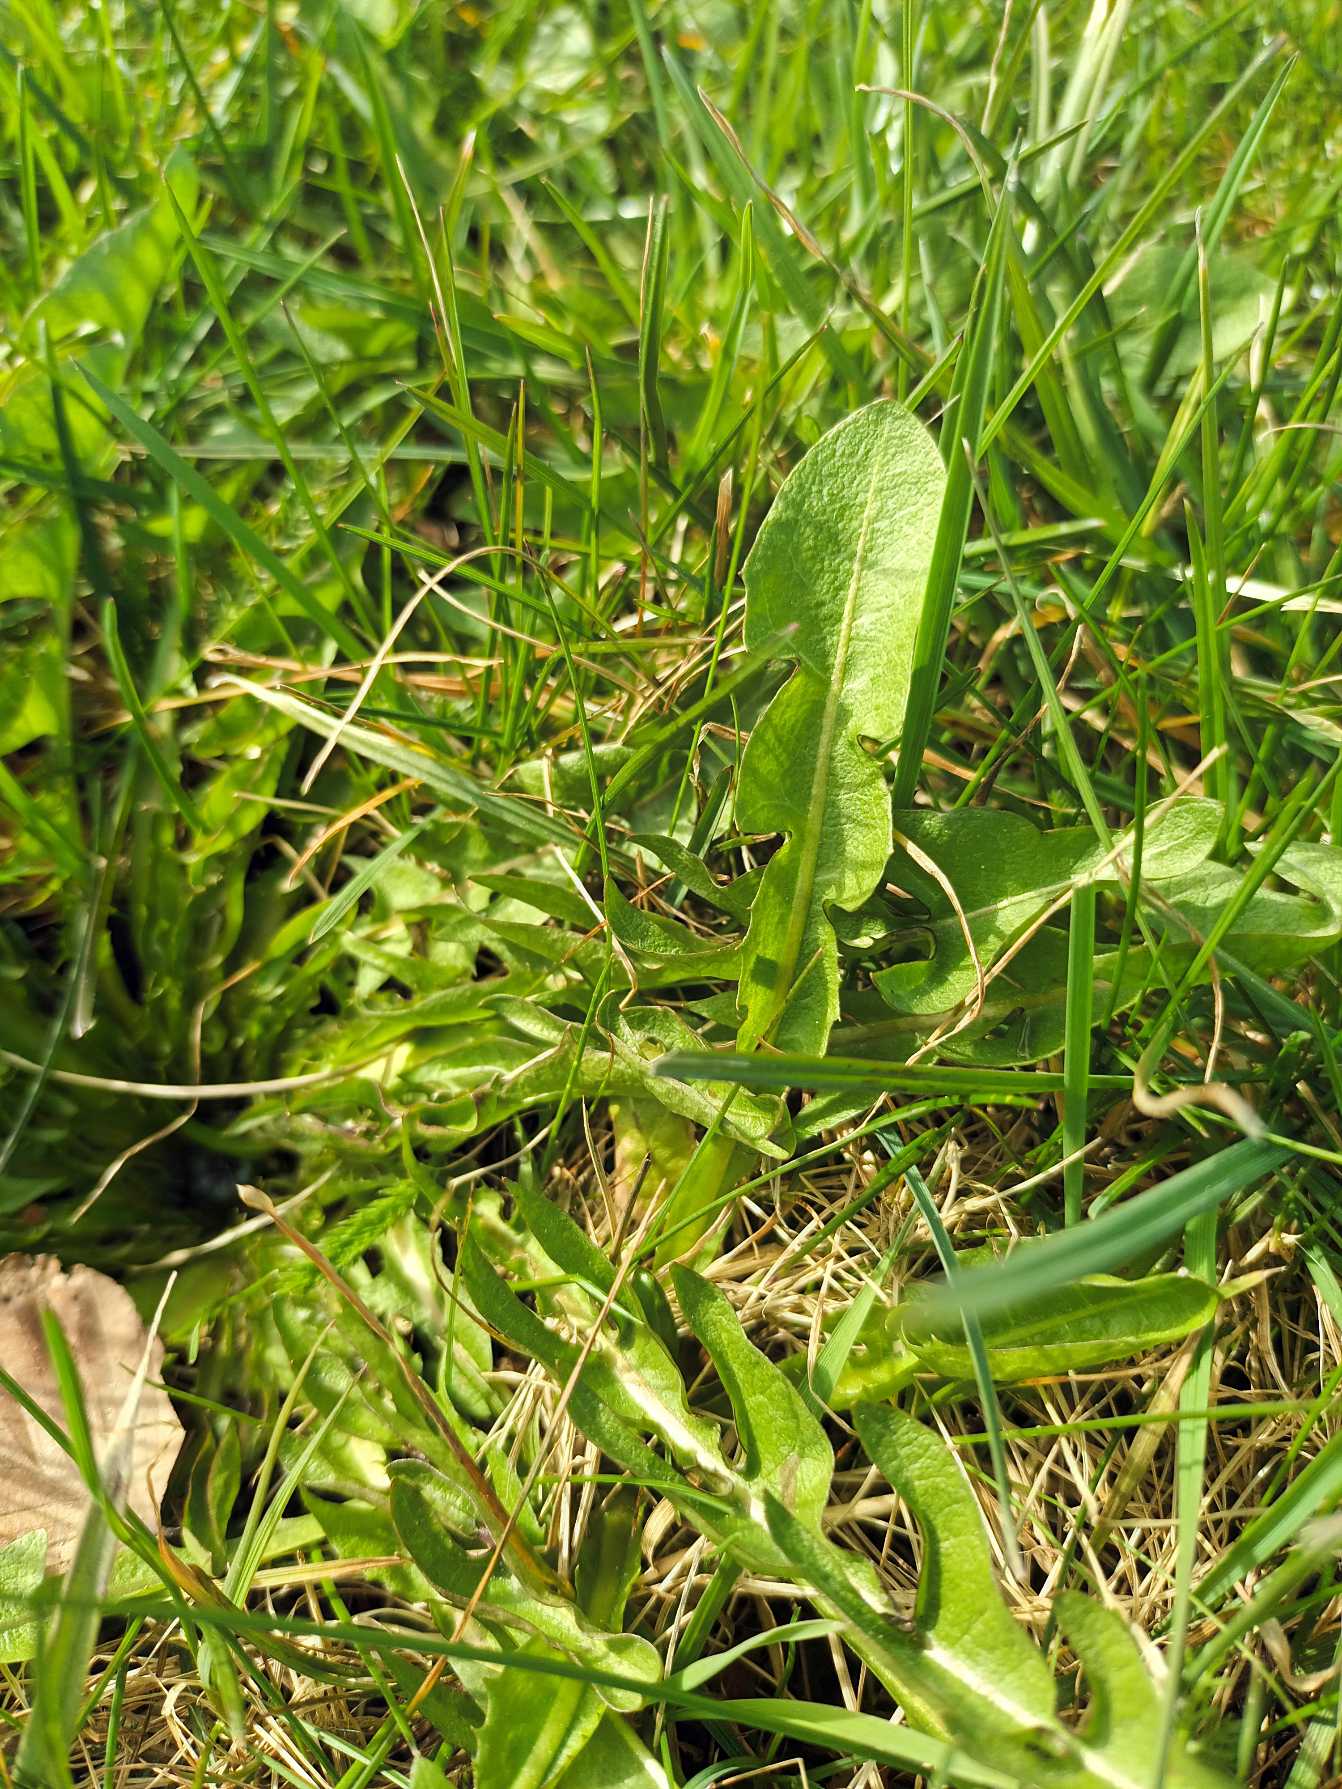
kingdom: Plantae
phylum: Tracheophyta
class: Magnoliopsida
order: Asterales
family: Asteraceae
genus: Taraxacum
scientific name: Taraxacum
